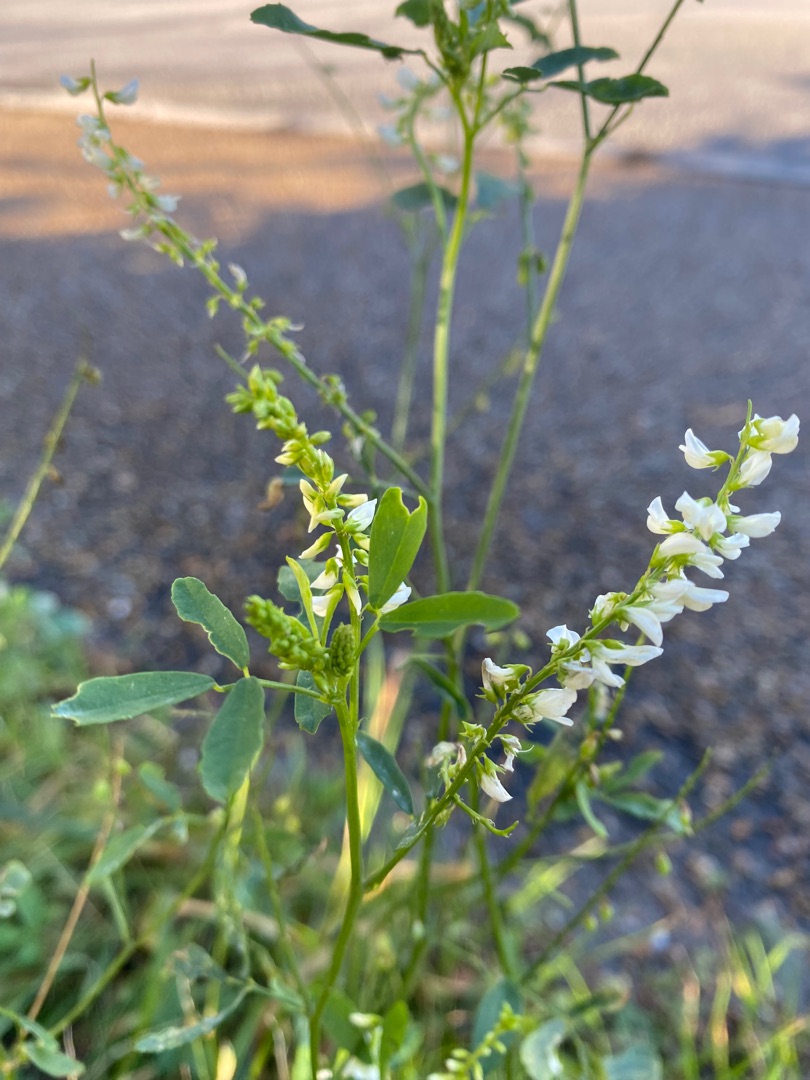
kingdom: Plantae
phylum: Tracheophyta
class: Magnoliopsida
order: Fabales
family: Fabaceae
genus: Melilotus
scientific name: Melilotus albus
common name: Hvid stenkløver
